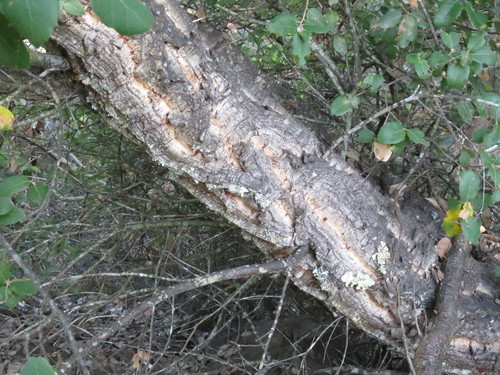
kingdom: Plantae
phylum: Tracheophyta
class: Magnoliopsida
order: Fagales
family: Fagaceae
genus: Quercus
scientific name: Quercus suber
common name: Cork oak
